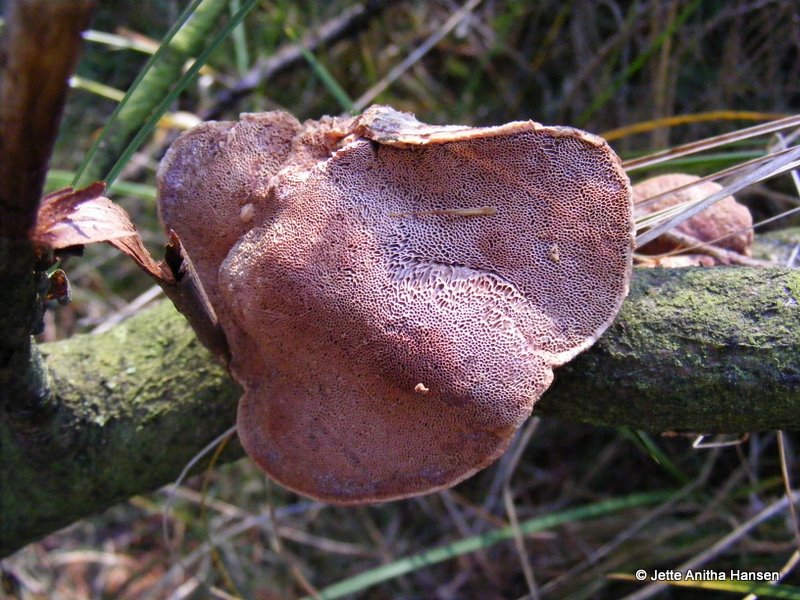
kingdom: Fungi
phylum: Basidiomycota
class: Agaricomycetes
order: Polyporales
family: Phanerochaetaceae
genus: Hapalopilus
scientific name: Hapalopilus rutilans
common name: rødlig okkerporesvamp
